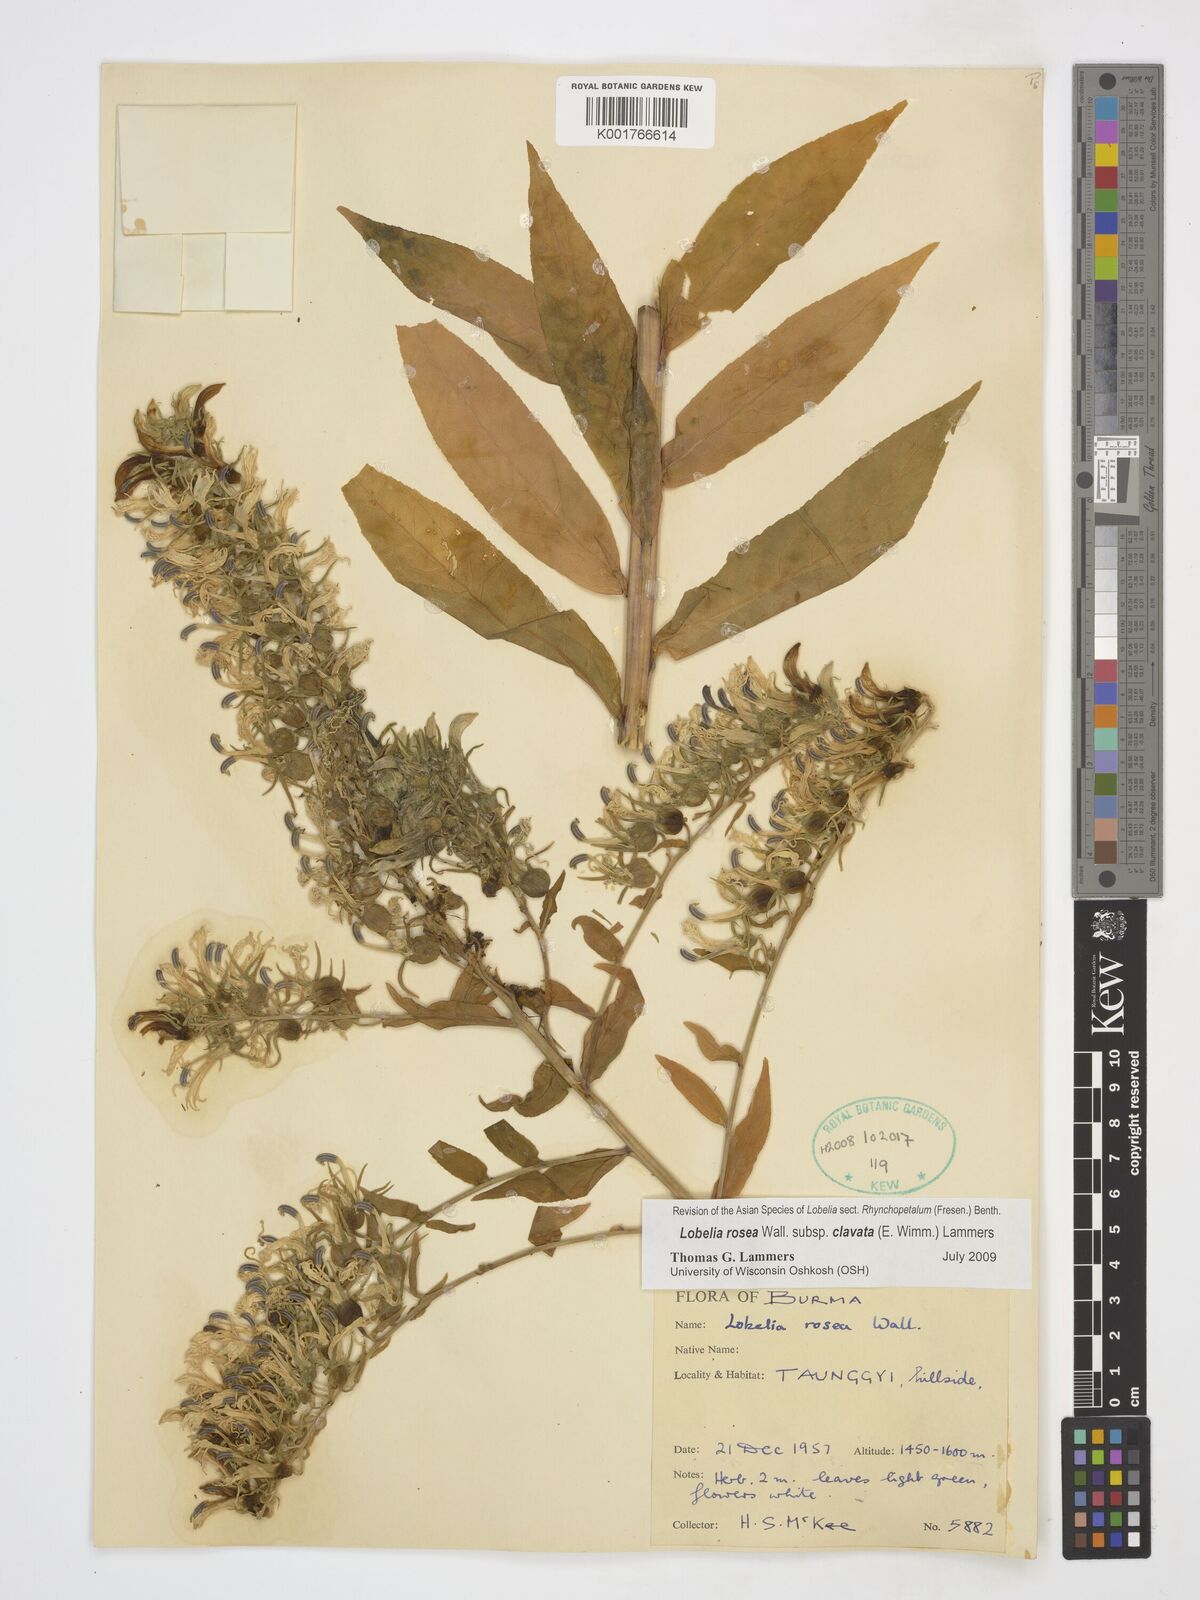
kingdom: Plantae
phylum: Tracheophyta
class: Magnoliopsida
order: Asterales
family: Campanulaceae
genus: Lobelia
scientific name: Lobelia rosea
